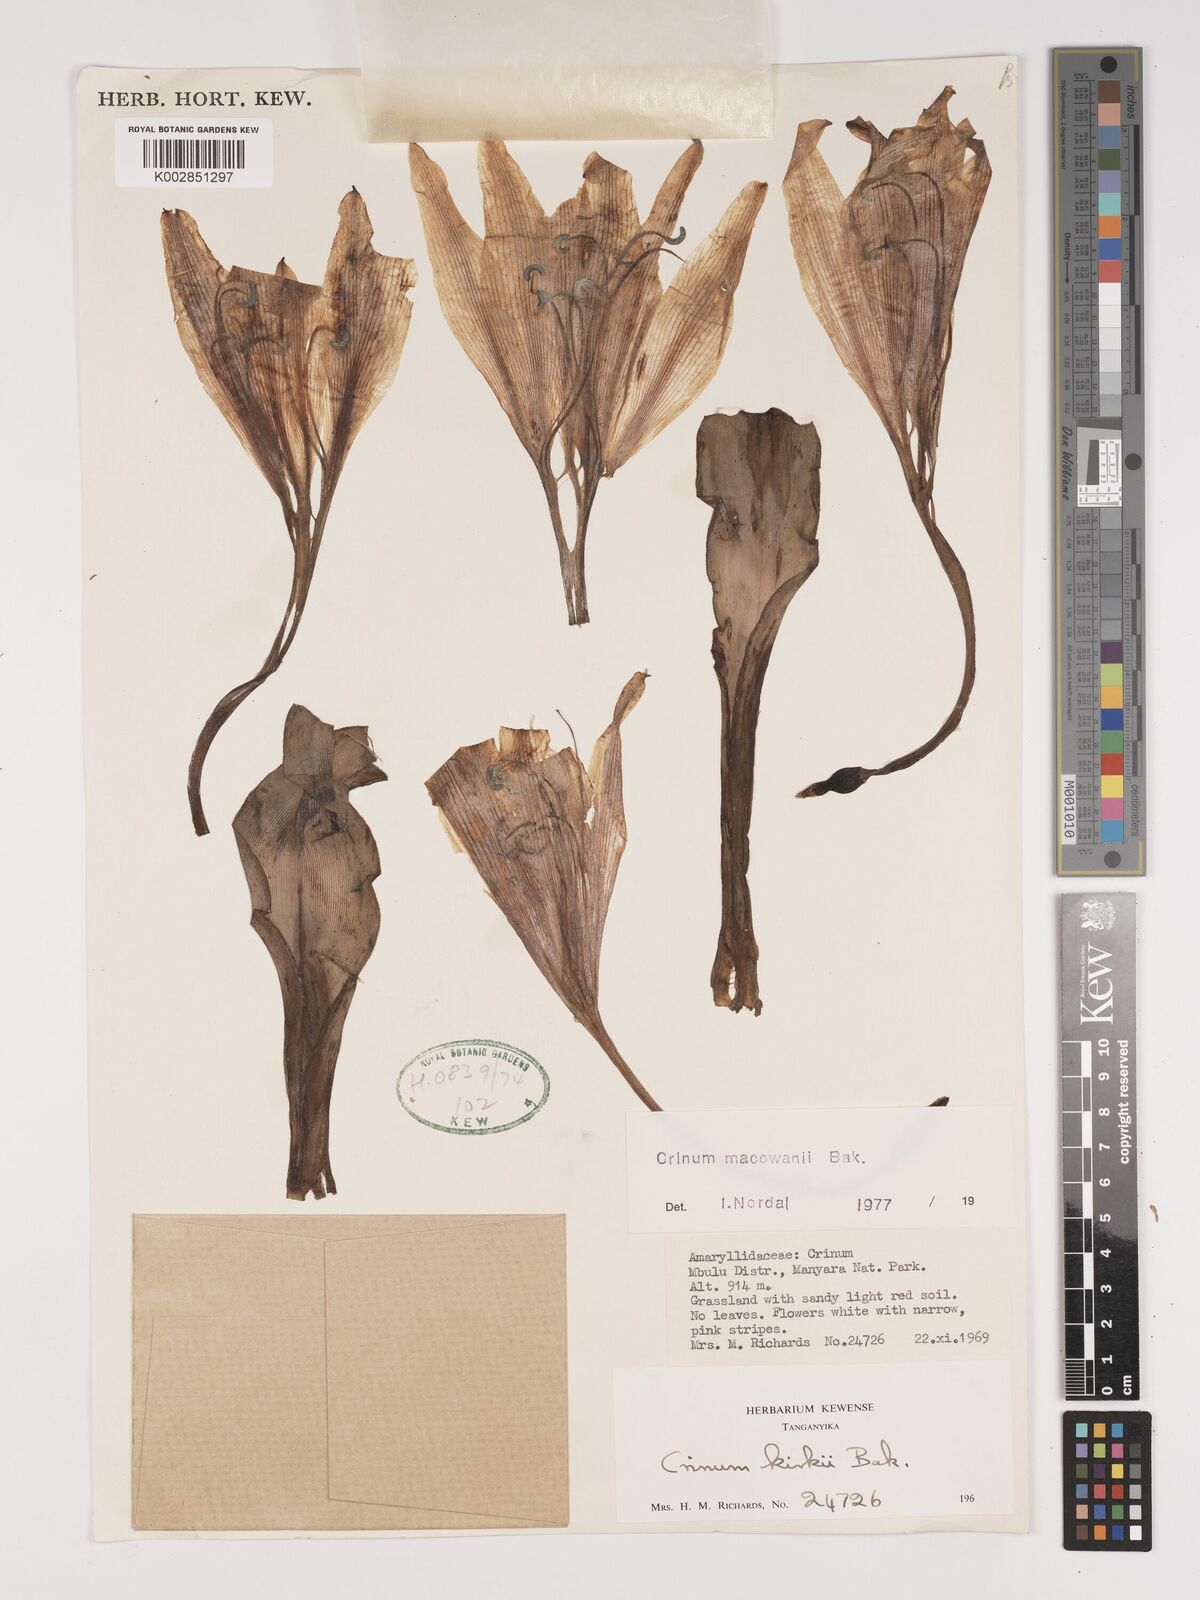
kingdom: Plantae
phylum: Tracheophyta
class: Liliopsida
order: Asparagales
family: Amaryllidaceae
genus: Crinum
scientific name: Crinum macowanii
